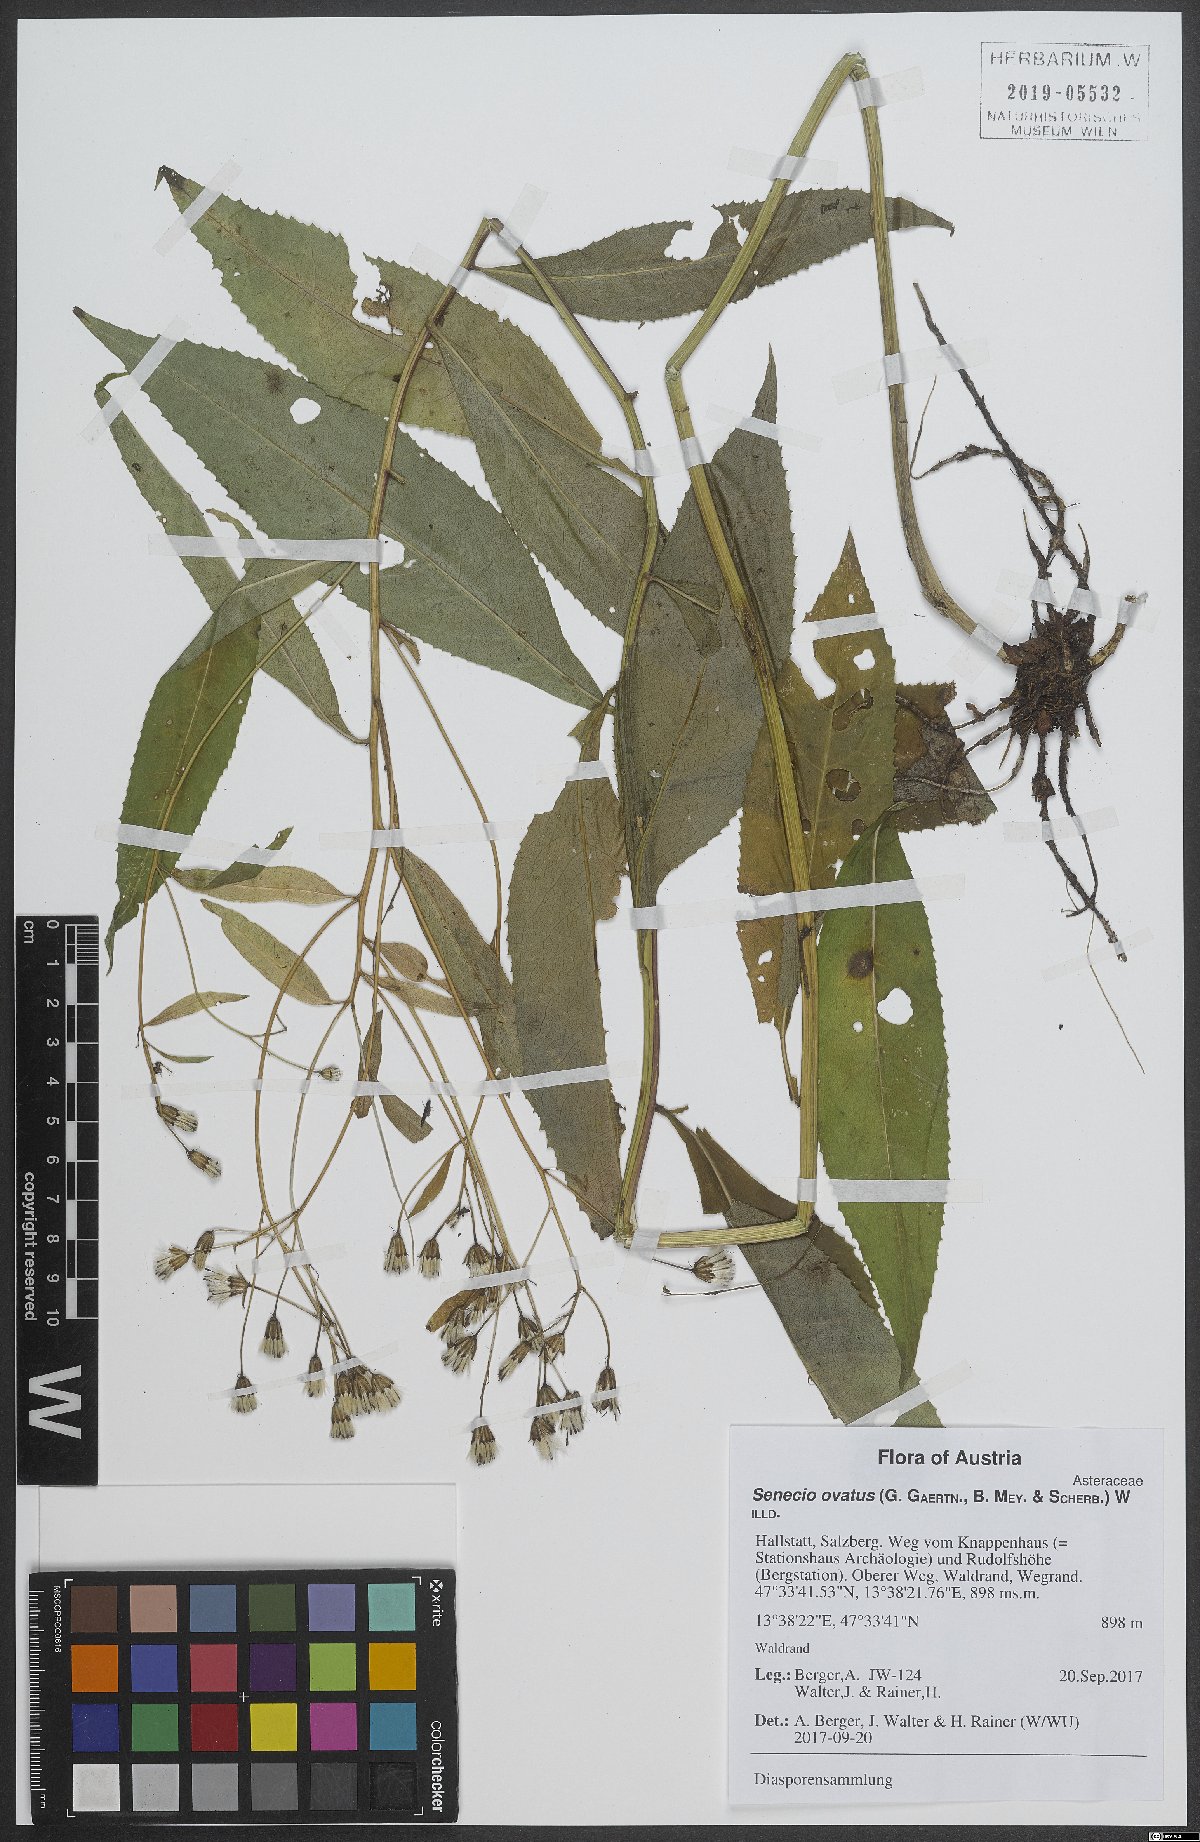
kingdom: Plantae
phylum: Tracheophyta
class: Magnoliopsida
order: Asterales
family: Asteraceae
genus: Senecio
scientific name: Senecio ovatus
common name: Wood ragwort
